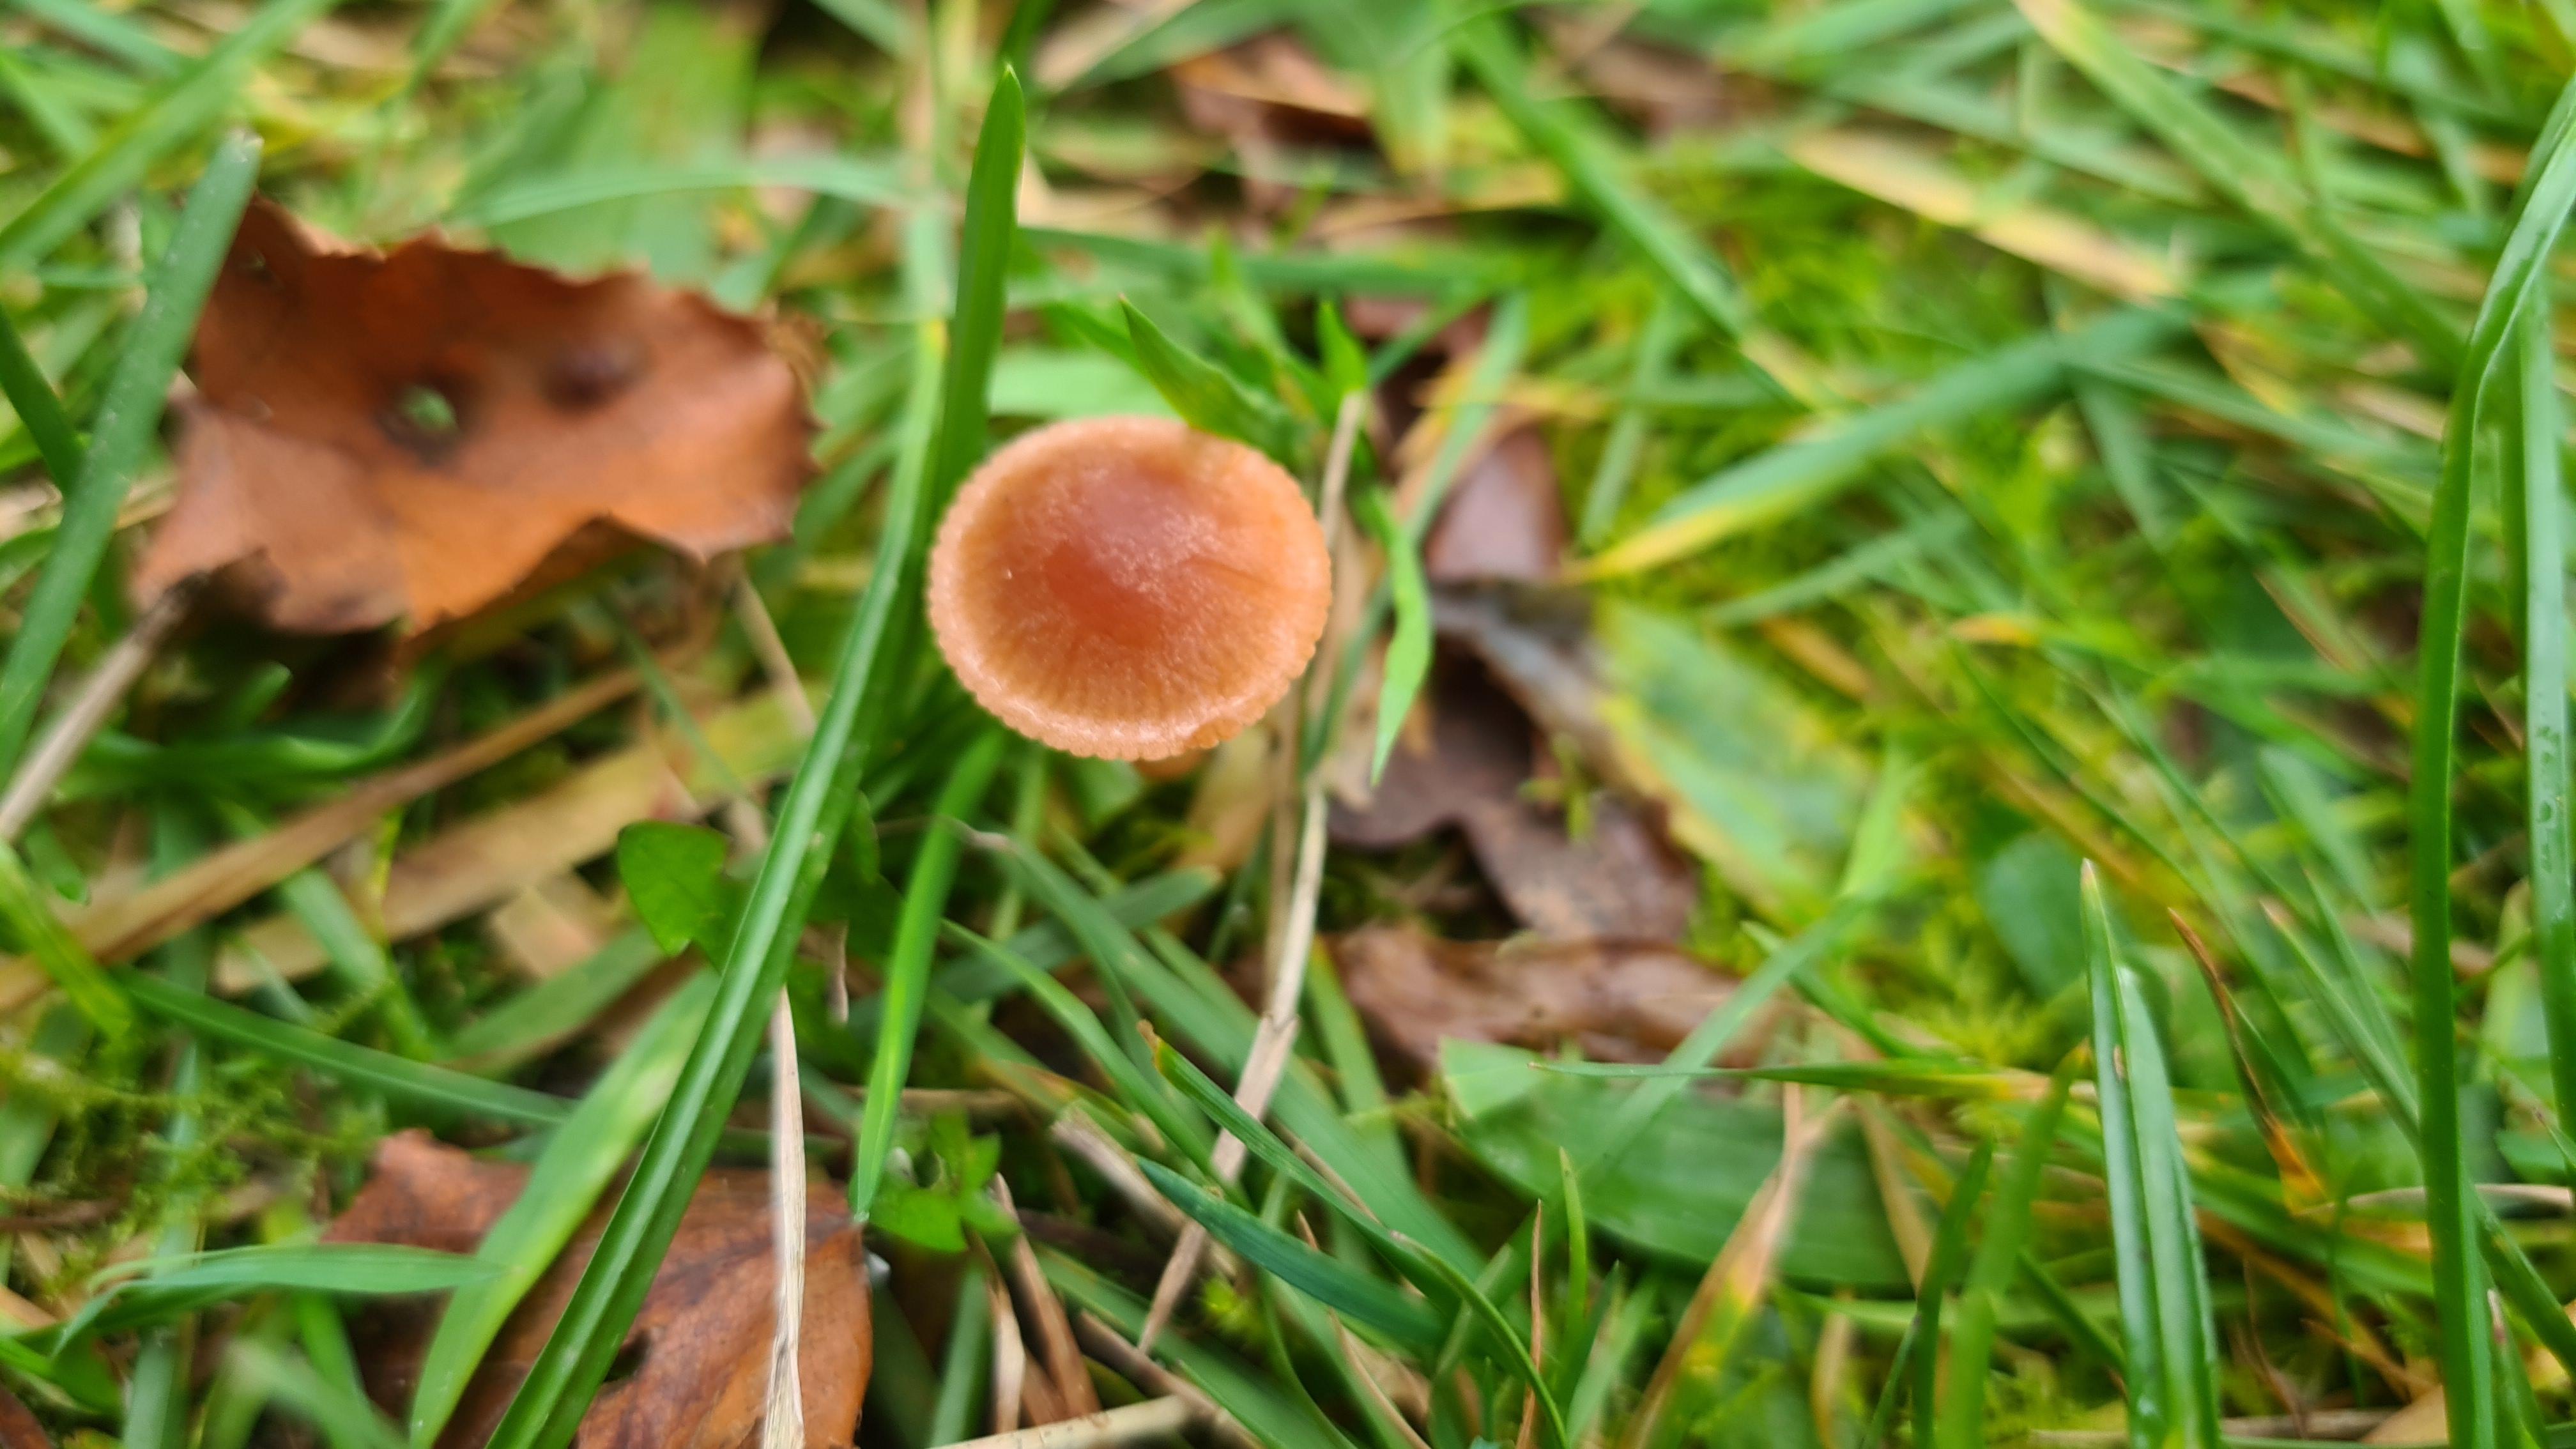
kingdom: Fungi
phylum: Basidiomycota
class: Agaricomycetes
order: Agaricales
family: Tubariaceae
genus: Tubaria
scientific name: Tubaria furfuracea
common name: kliddet fnughat
